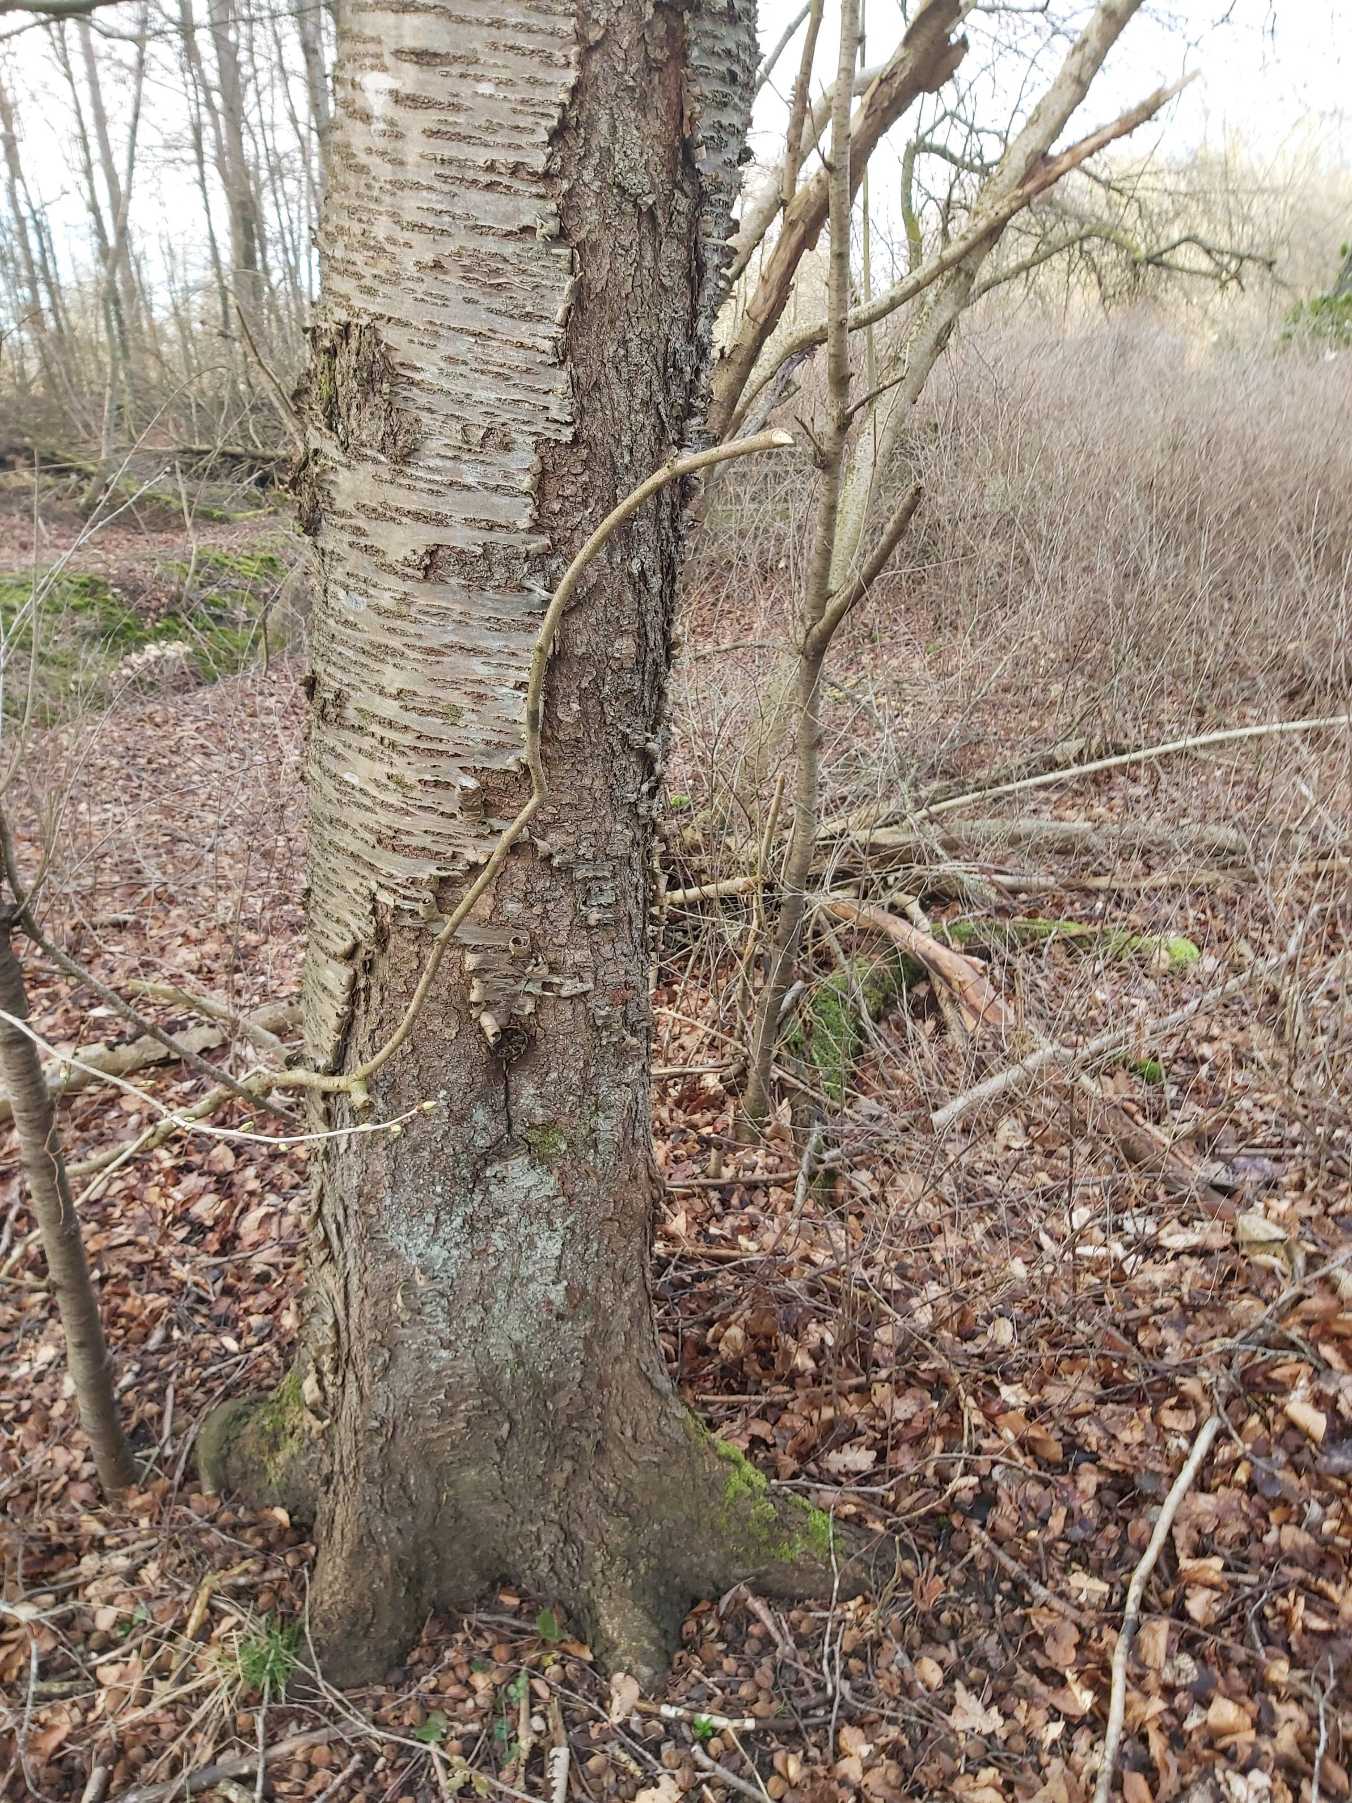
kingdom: Plantae
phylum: Tracheophyta
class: Magnoliopsida
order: Rosales
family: Rosaceae
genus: Prunus
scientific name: Prunus avium
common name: Fugle-kirsebær
